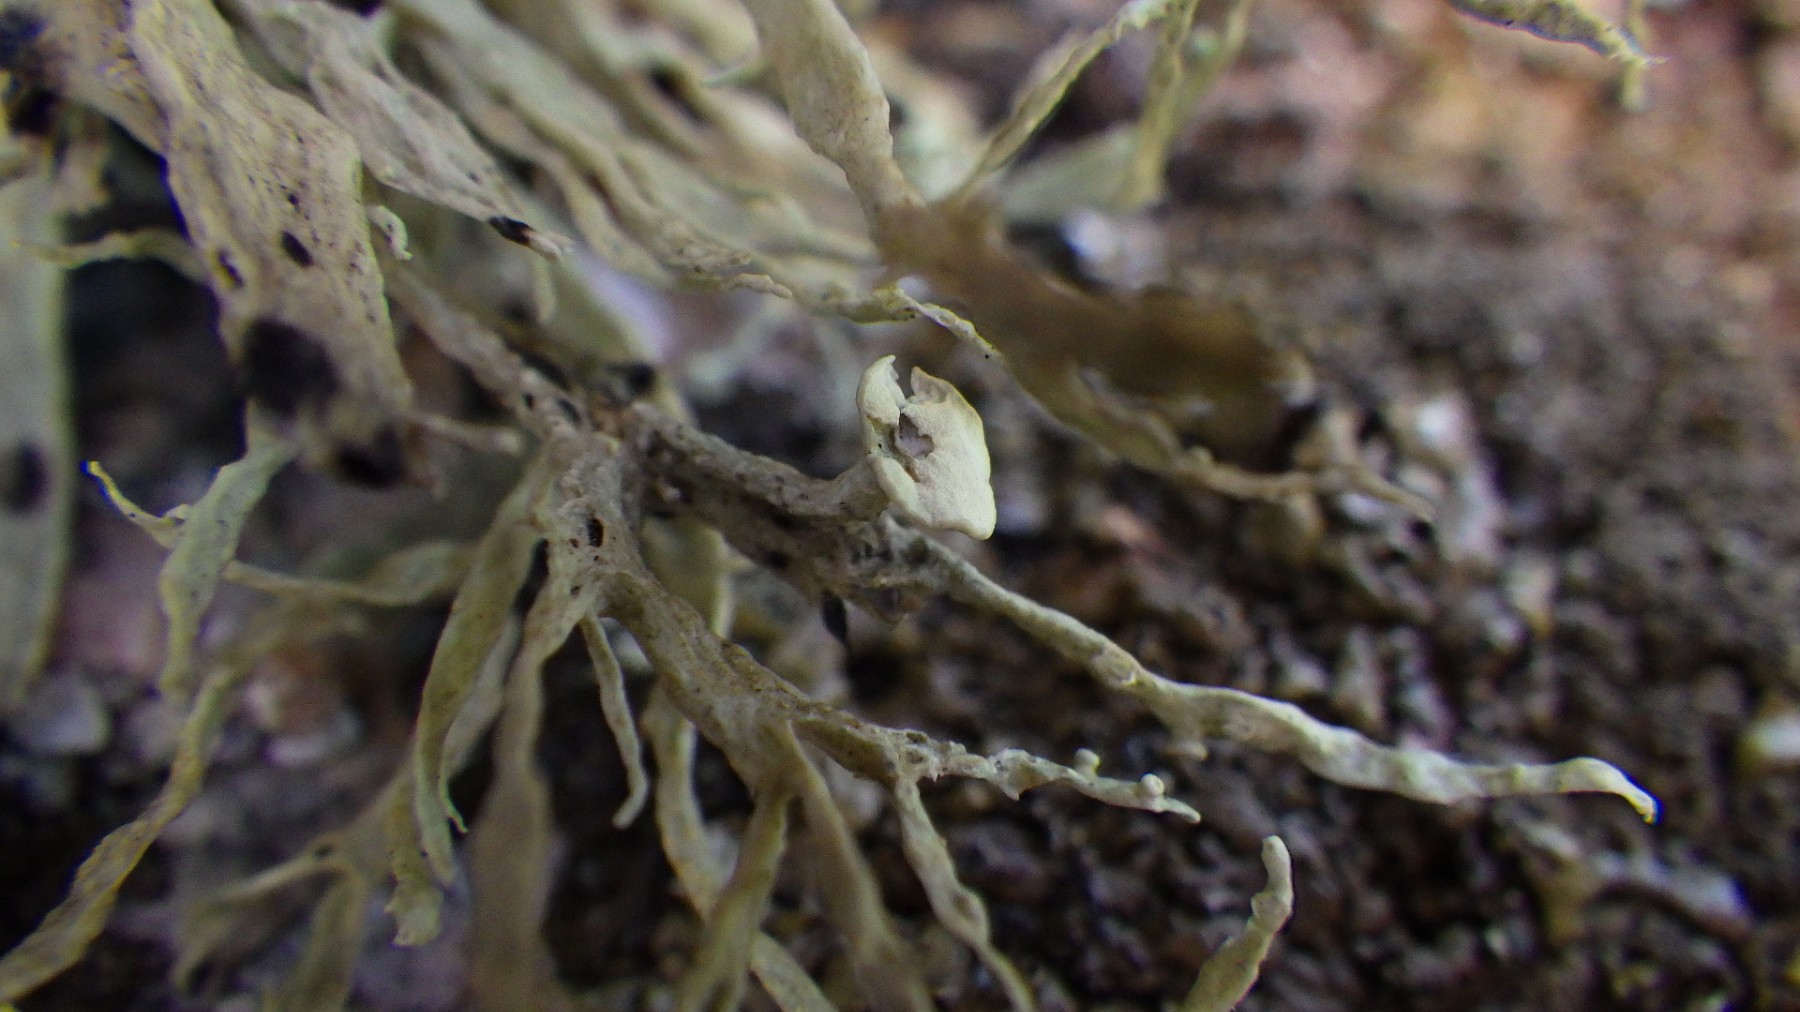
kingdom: Fungi
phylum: Ascomycota
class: Lecanoromycetes
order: Lecanorales
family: Ramalinaceae
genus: Ramalina
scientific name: Ramalina siliquosa
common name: klippe-grenlav
